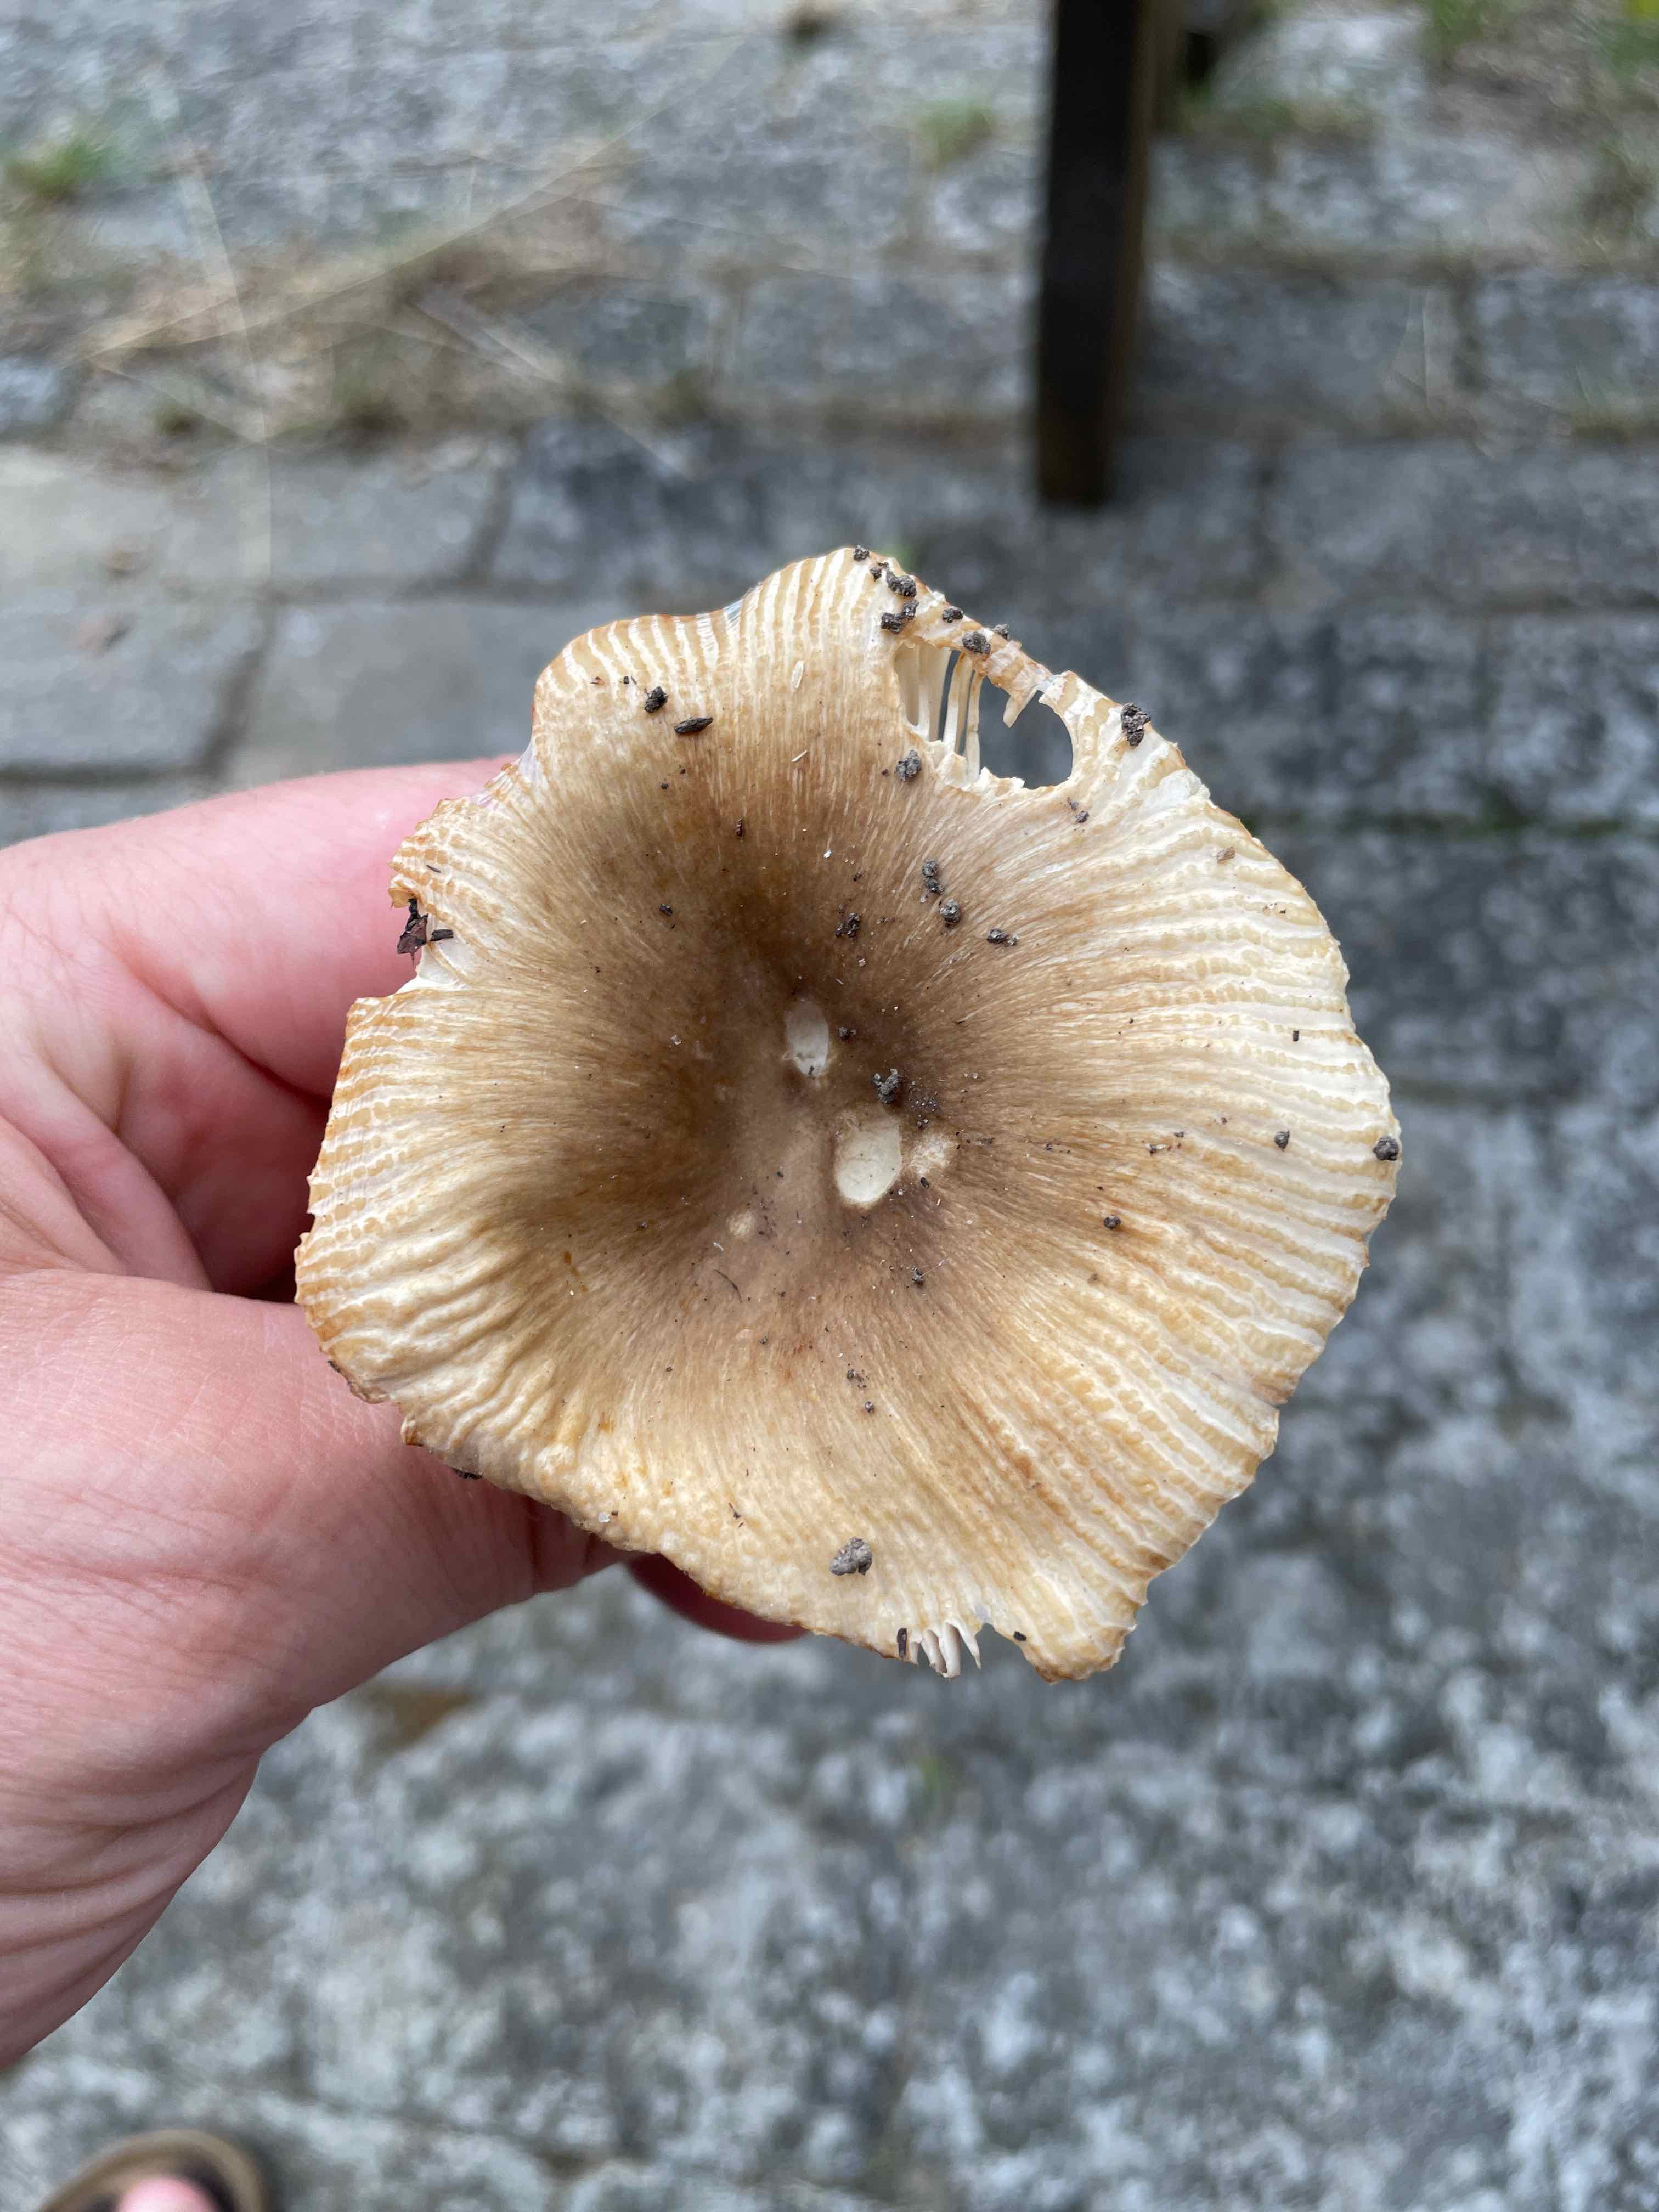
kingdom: Fungi
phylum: Basidiomycota
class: Agaricomycetes
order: Russulales
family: Russulaceae
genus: Russula
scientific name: Russula recondita
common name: mild kam-skørhat
